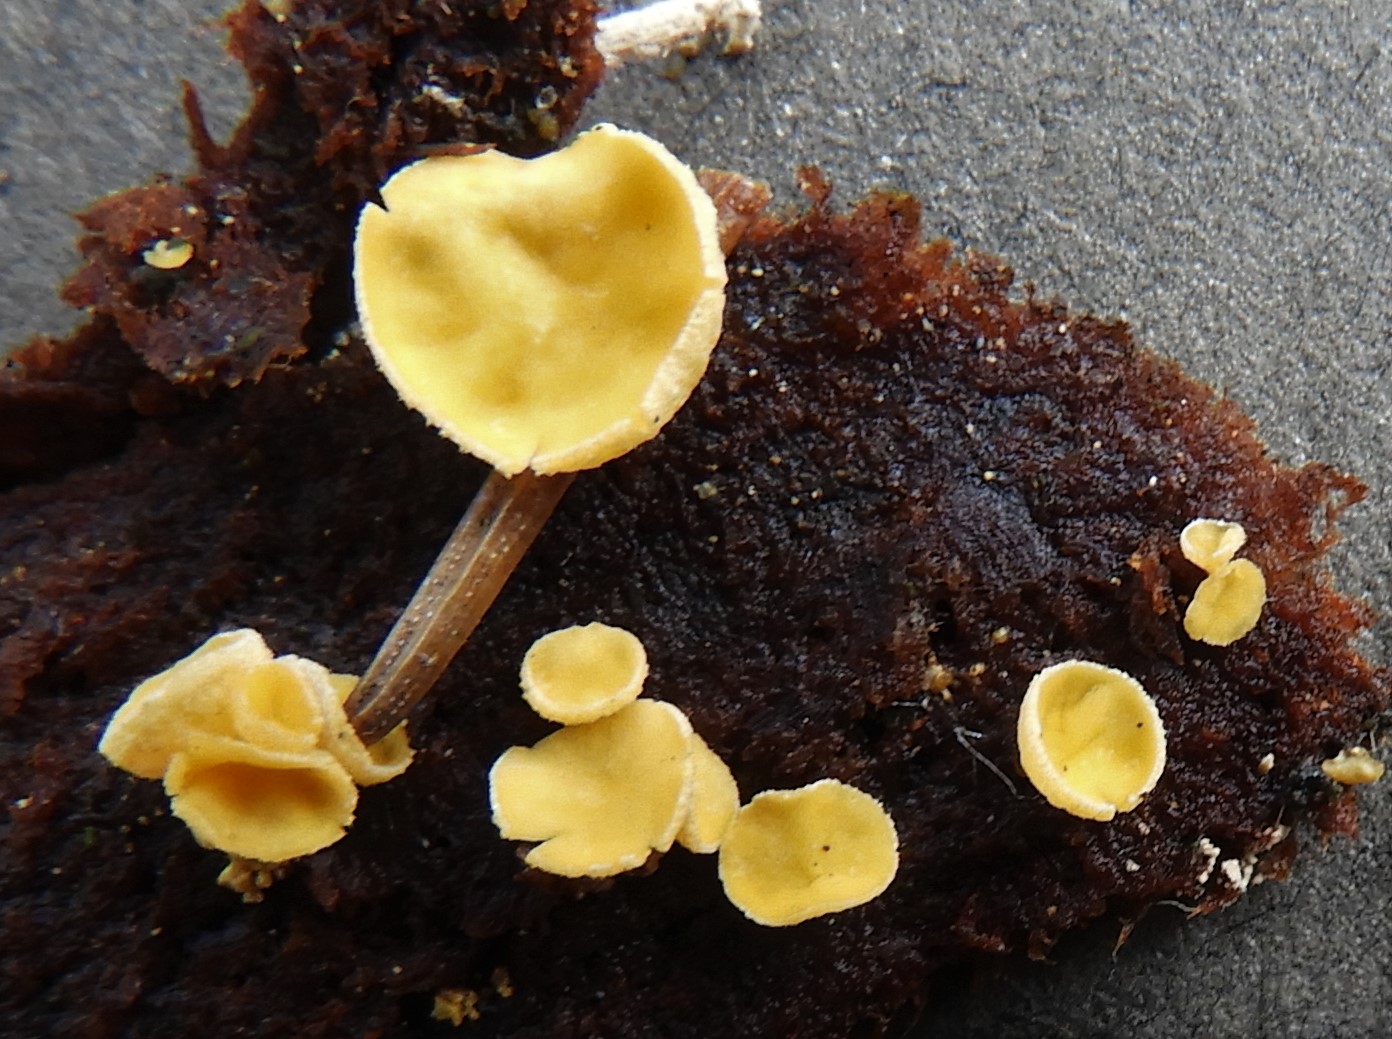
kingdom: Fungi
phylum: Ascomycota
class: Leotiomycetes
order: Helotiales
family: Lachnaceae
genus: Lachnellula
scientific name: Lachnellula
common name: frynseskive
